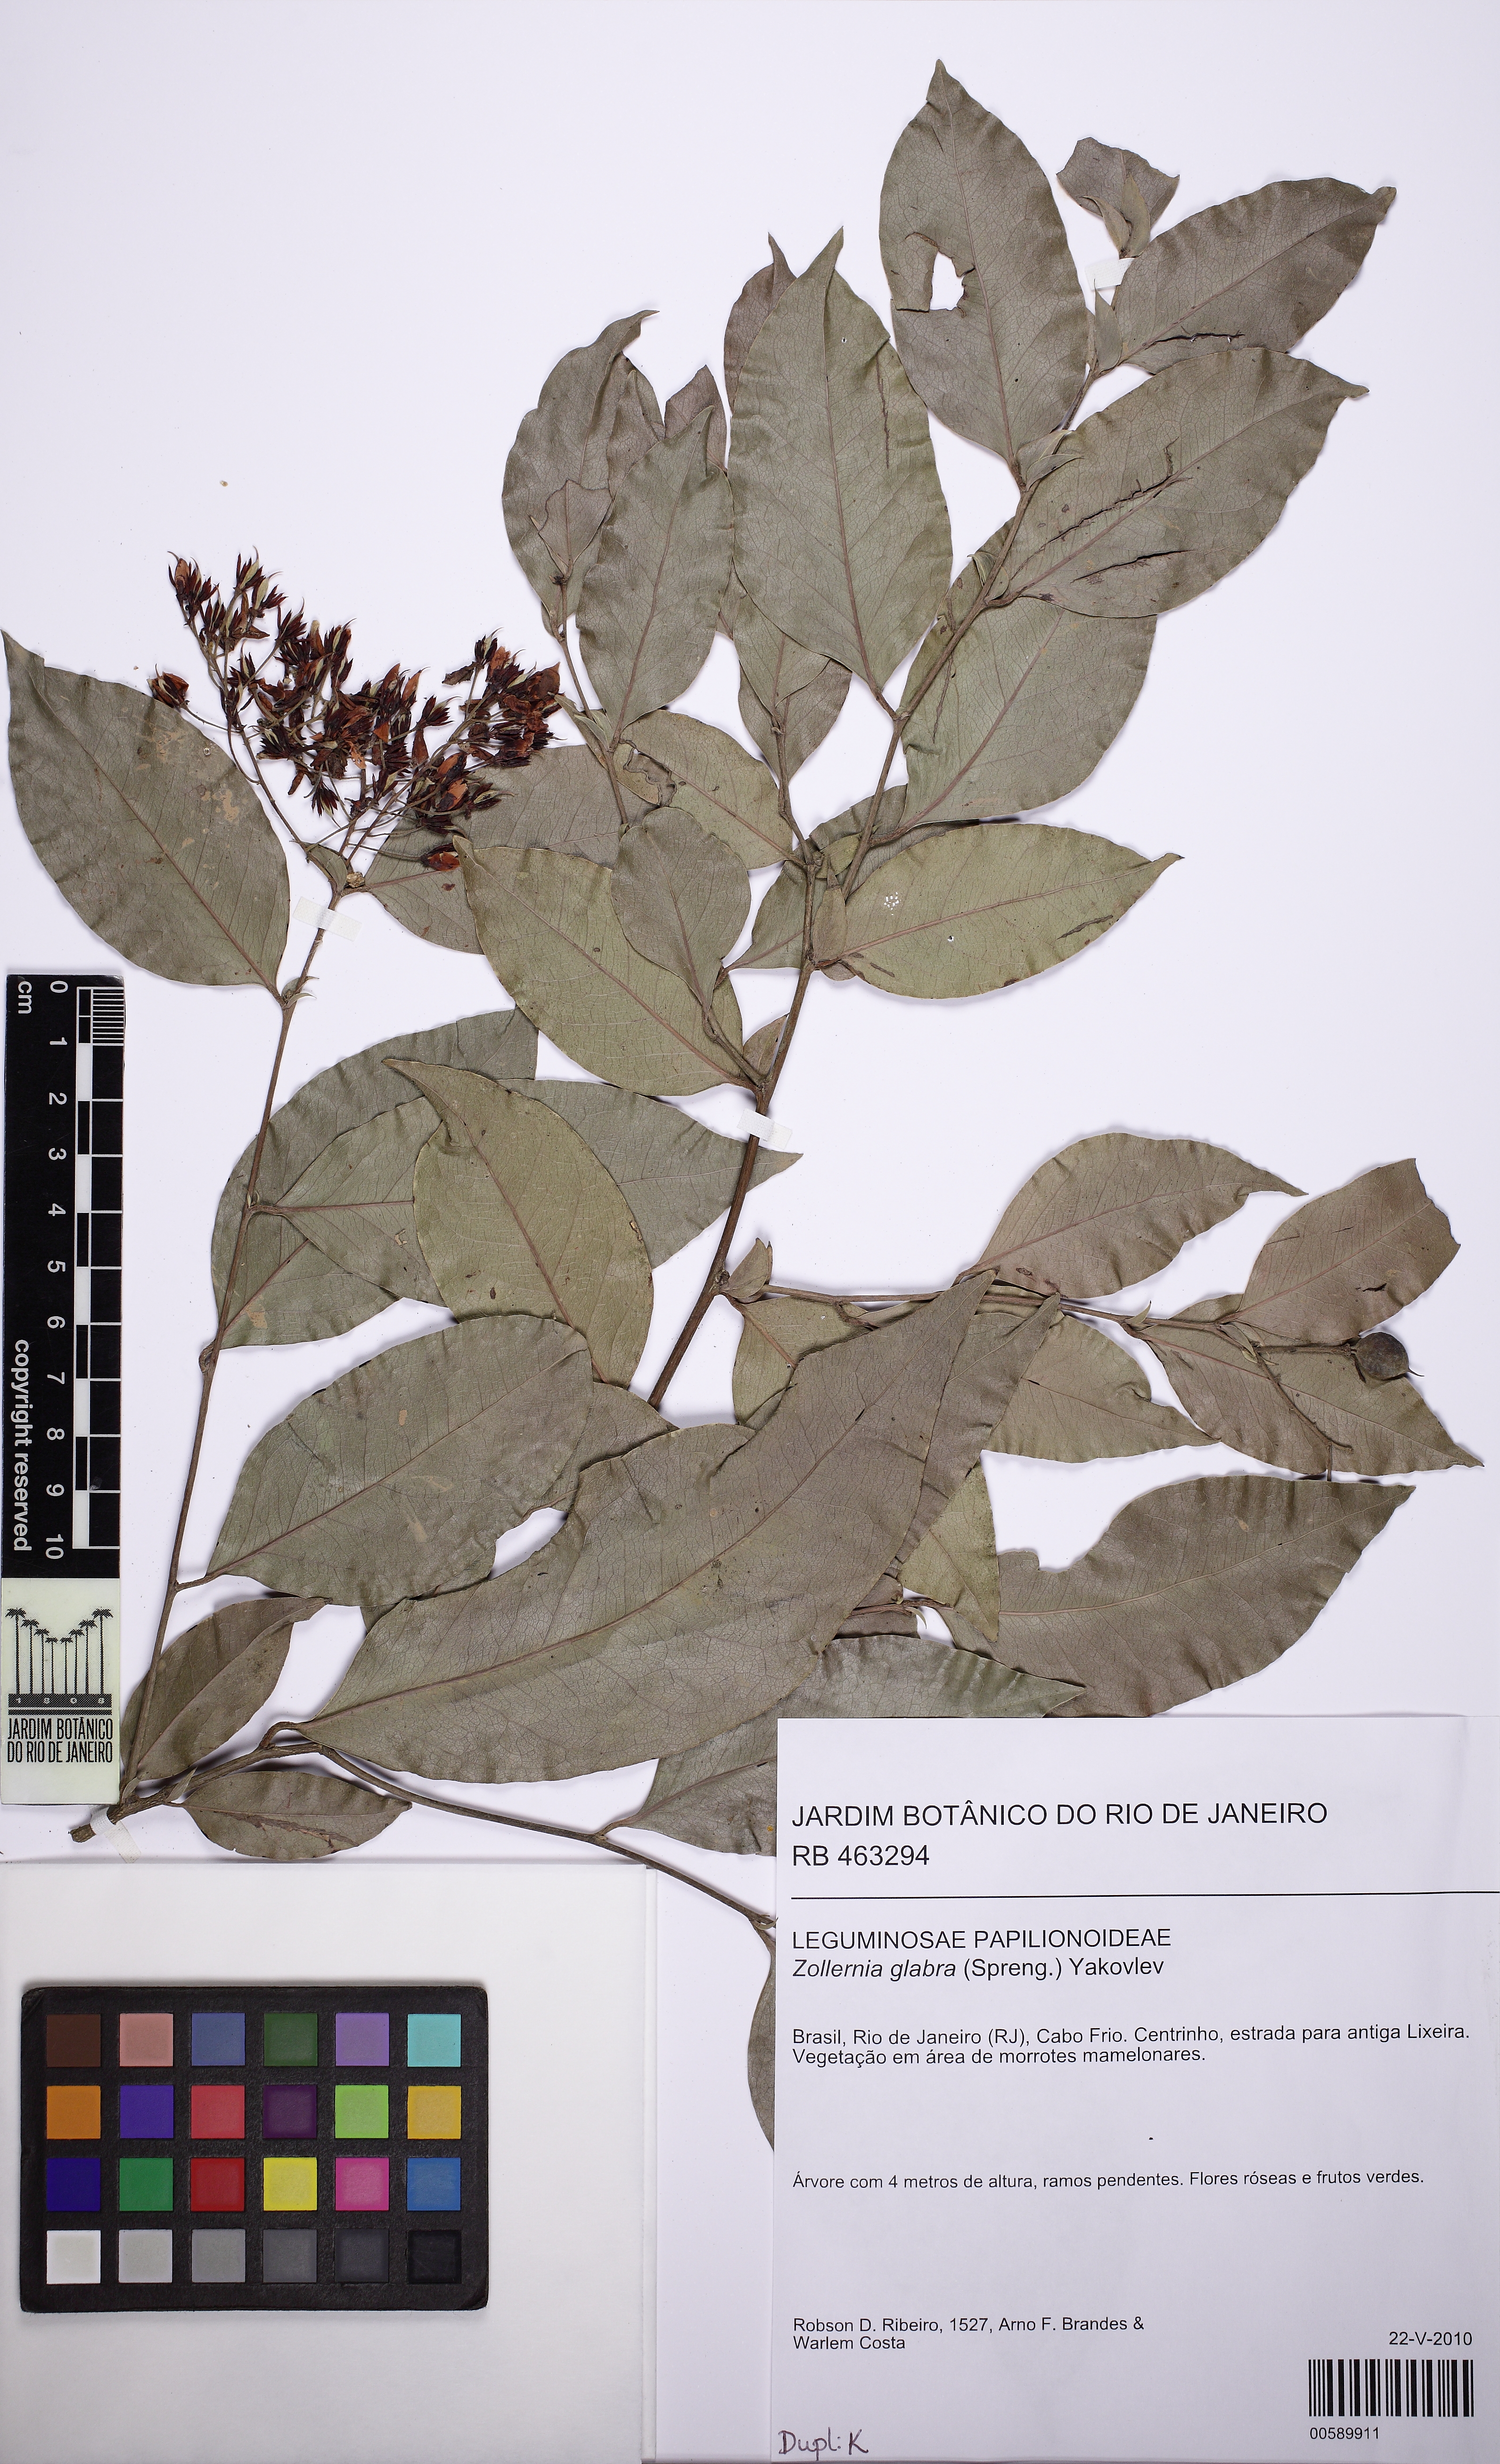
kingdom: Plantae
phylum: Tracheophyta
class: Magnoliopsida
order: Fabales
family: Fabaceae
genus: Zollernia
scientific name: Zollernia glabra
